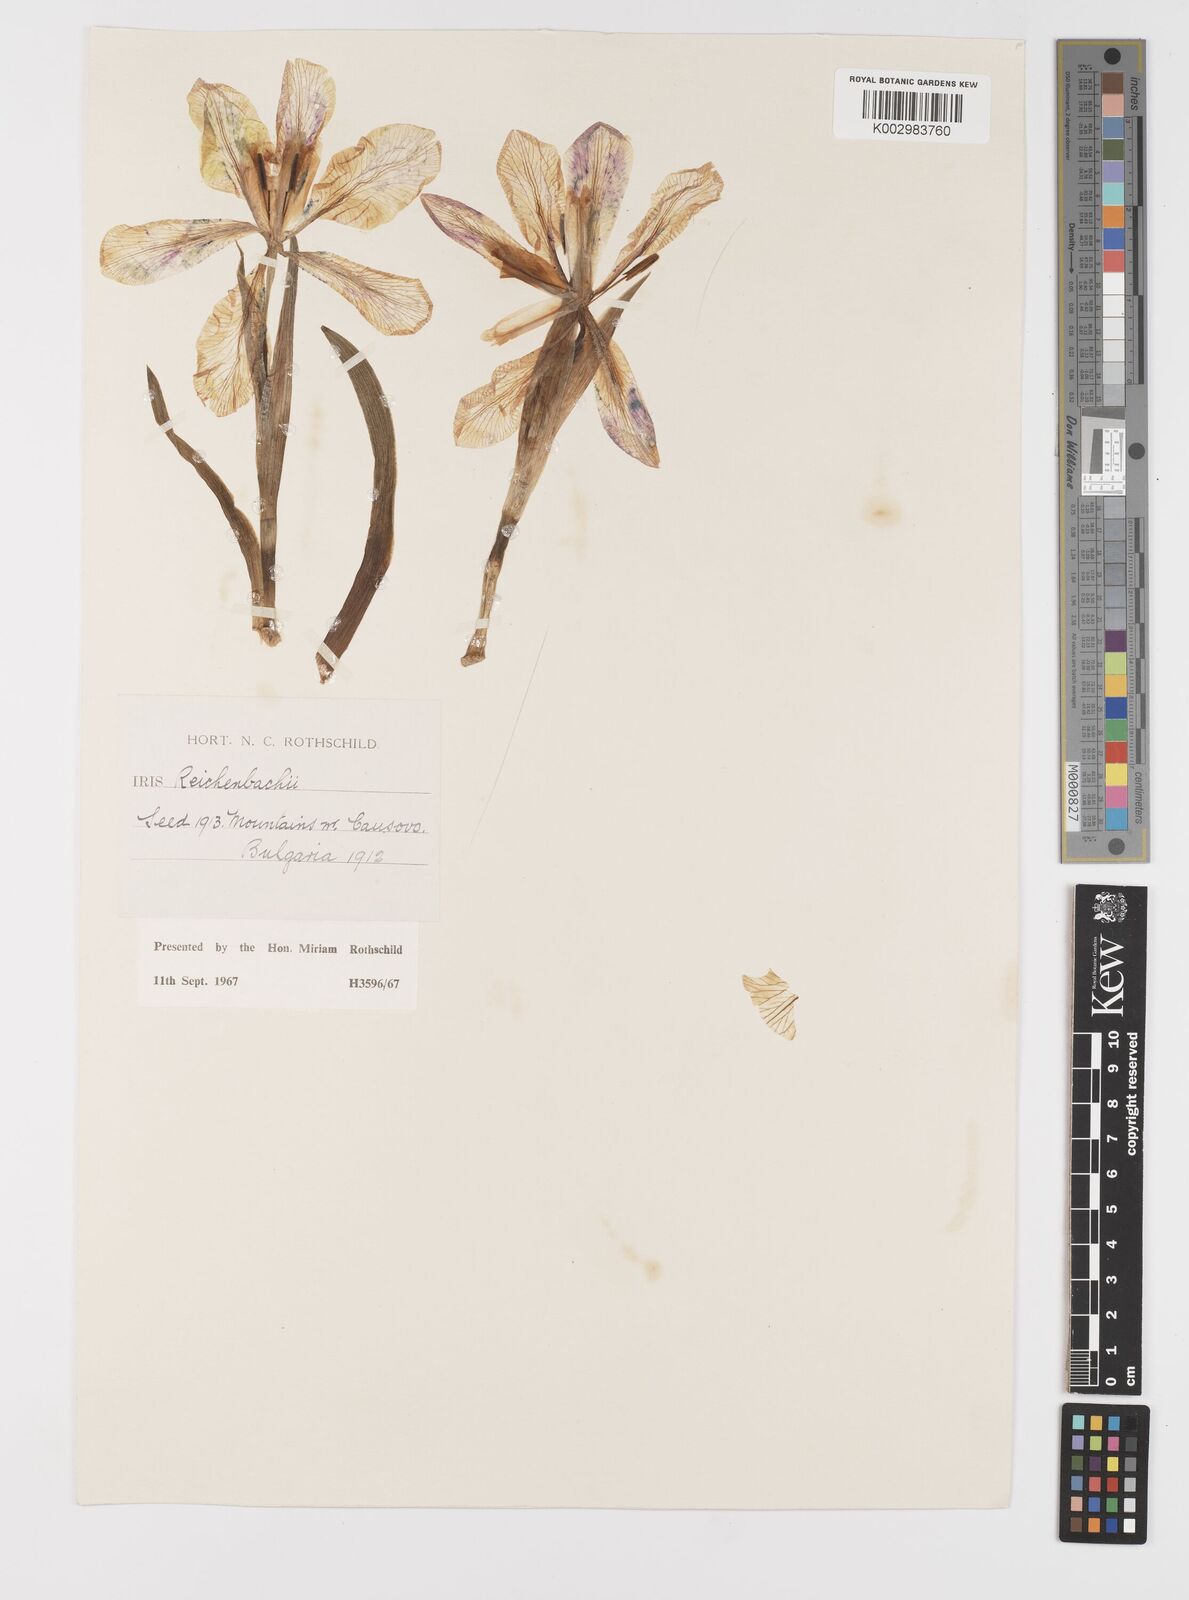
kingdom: Plantae
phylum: Tracheophyta
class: Liliopsida
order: Asparagales
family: Iridaceae
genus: Iris
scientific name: Iris reichenbachii
